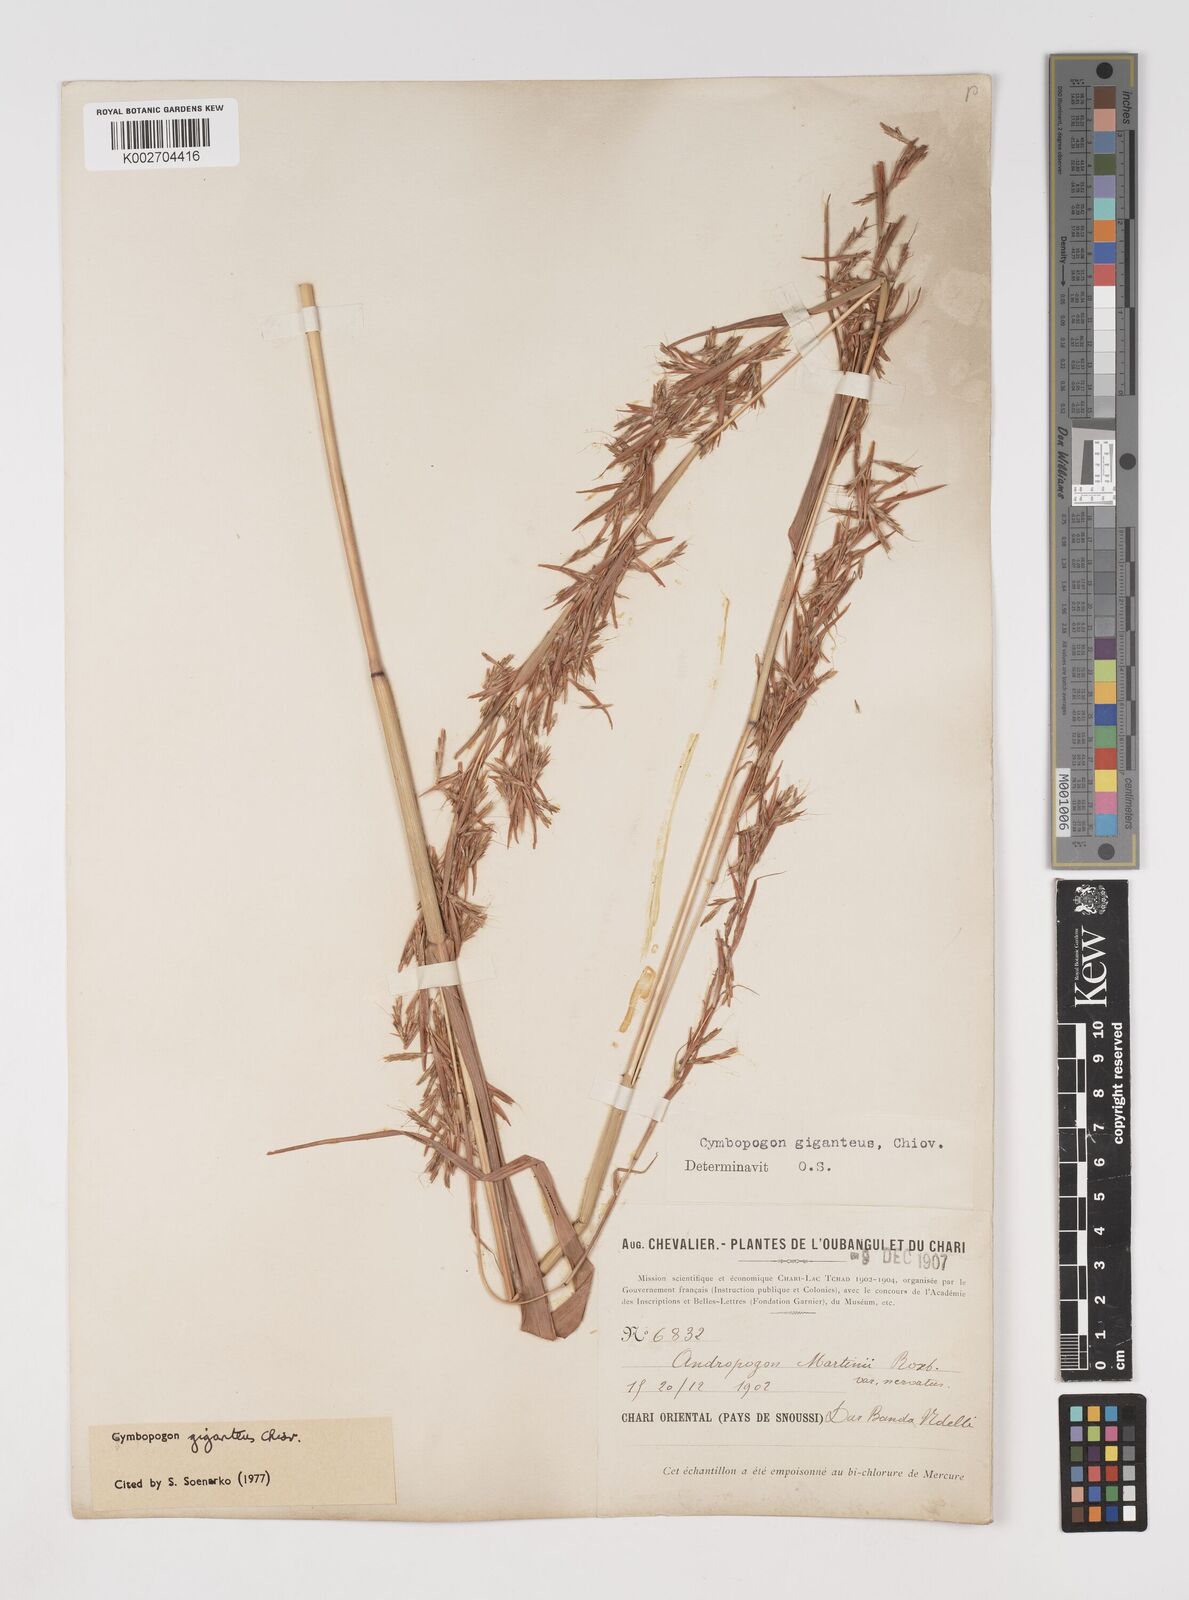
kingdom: Plantae
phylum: Tracheophyta
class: Liliopsida
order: Poales
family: Poaceae
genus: Cymbopogon
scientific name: Cymbopogon giganteus
